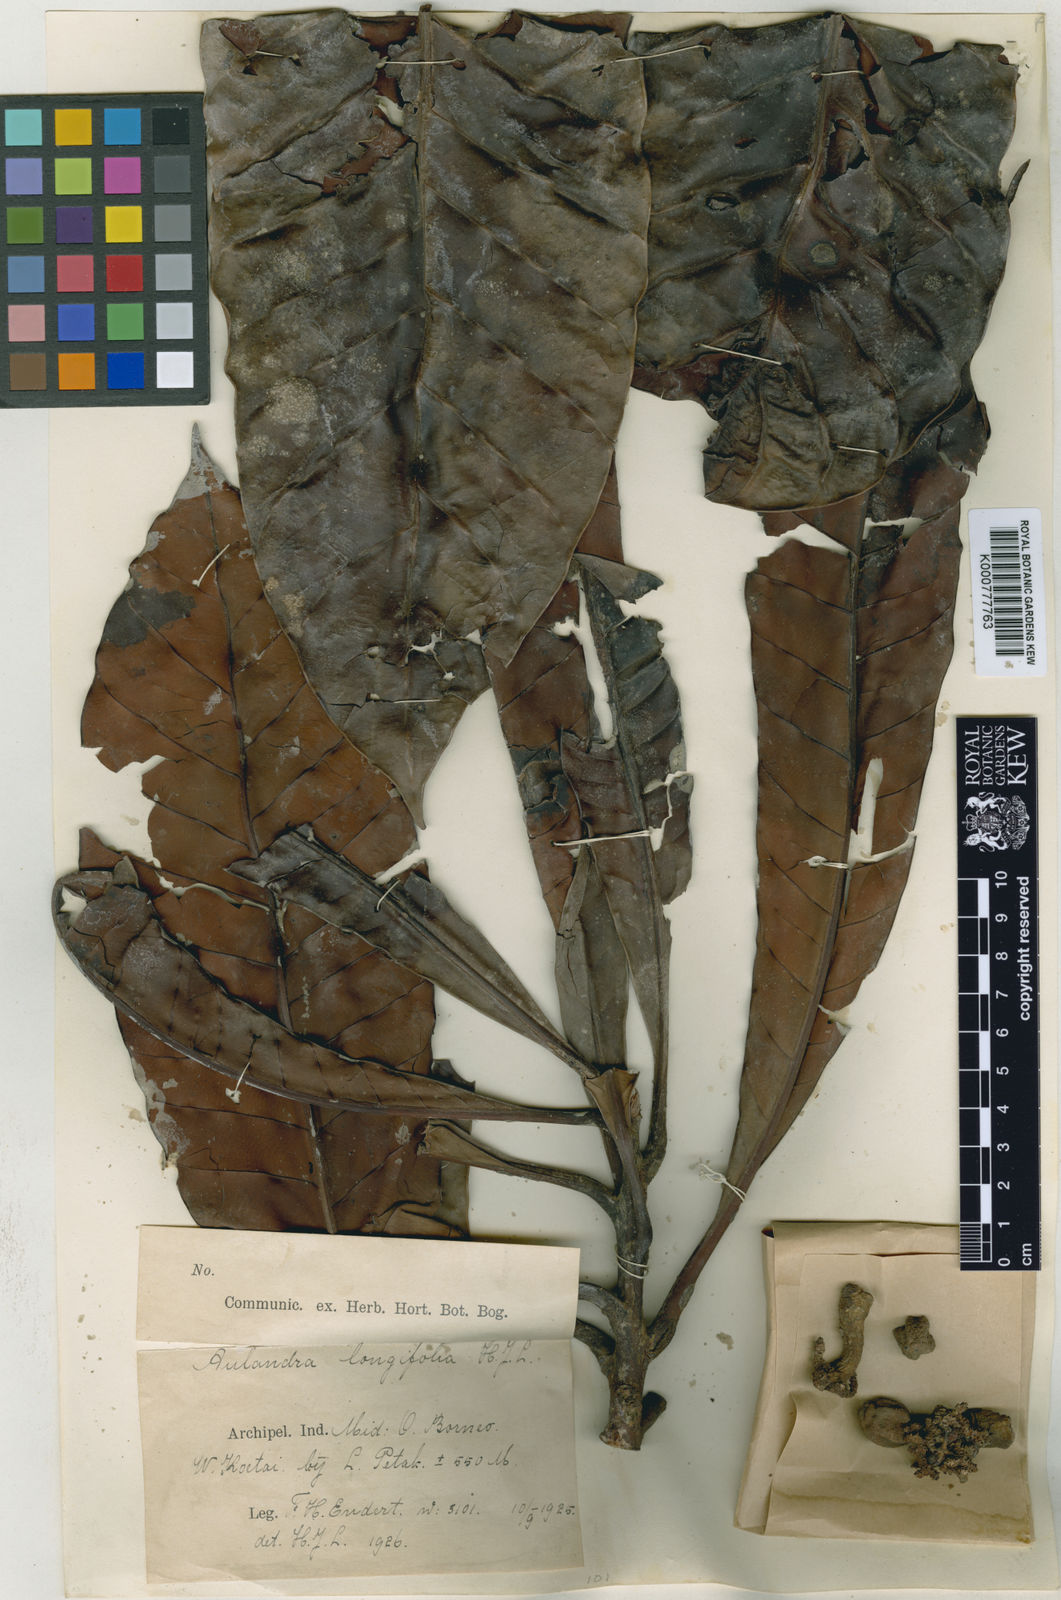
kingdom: Plantae
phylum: Tracheophyta
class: Magnoliopsida
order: Ericales
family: Sapotaceae
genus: Aulandra
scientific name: Aulandra longifolia
